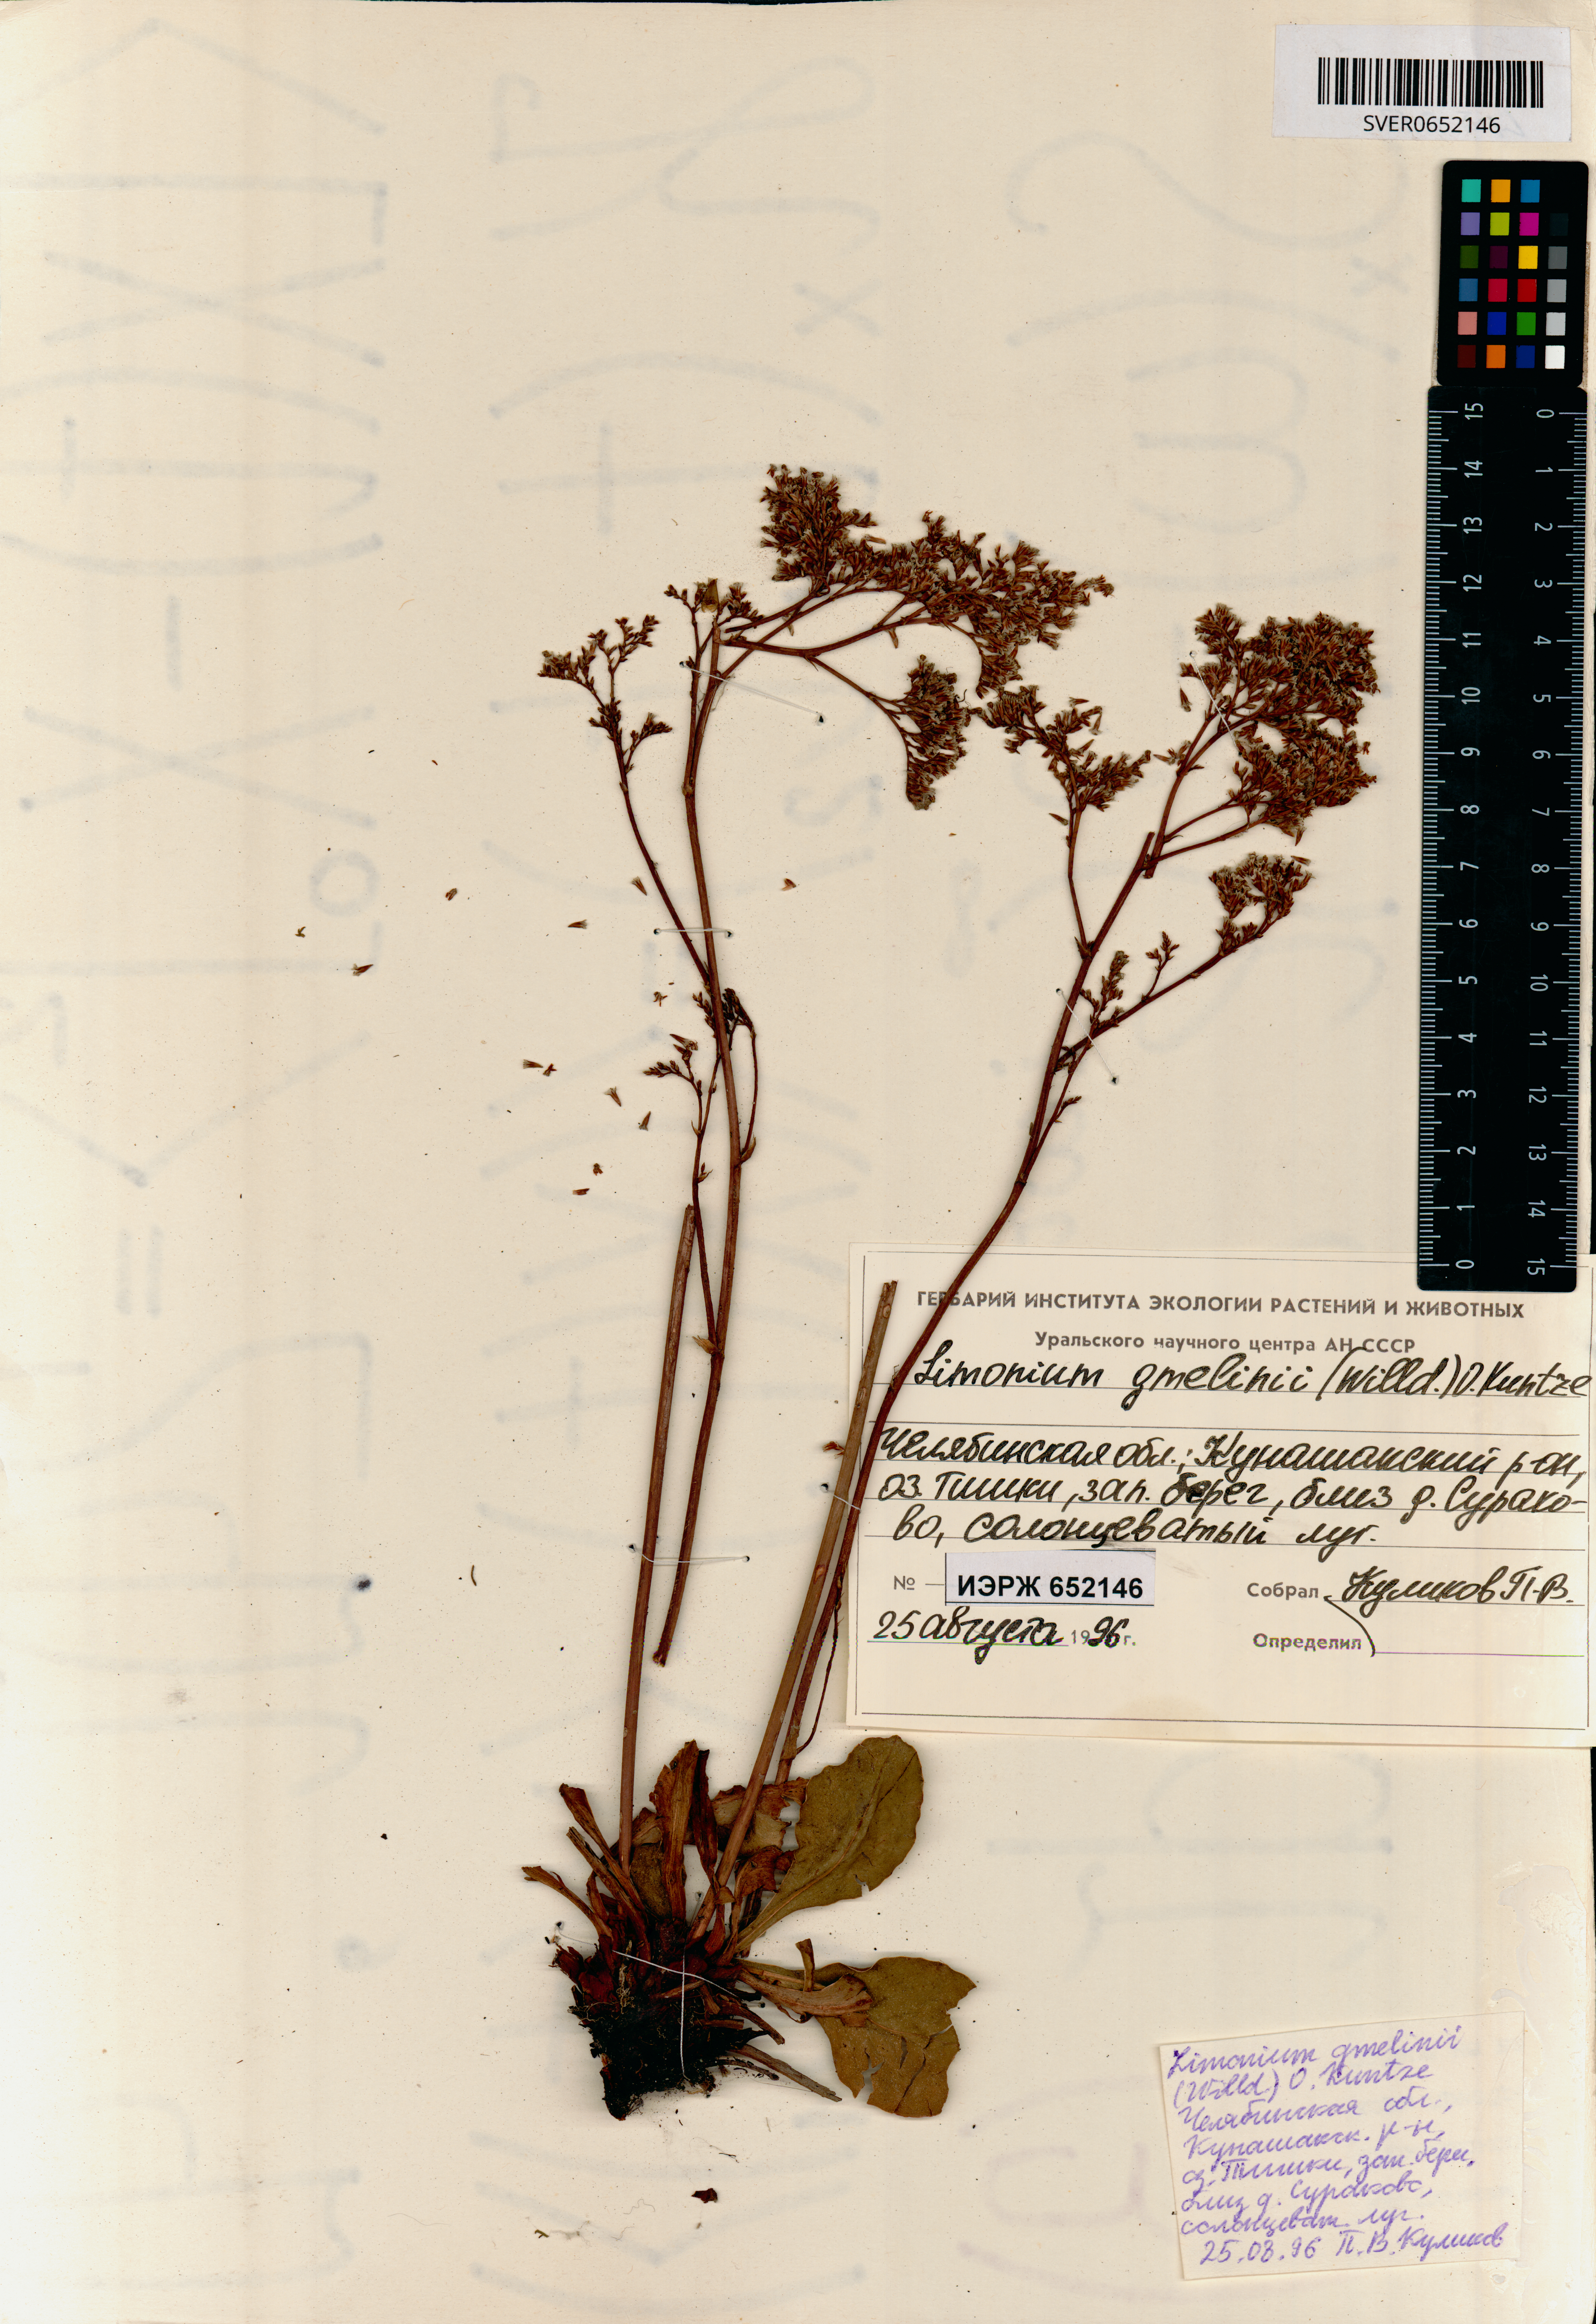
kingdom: Plantae
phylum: Tracheophyta
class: Magnoliopsida
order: Caryophyllales
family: Plumbaginaceae
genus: Limonium
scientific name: Limonium gmelini
